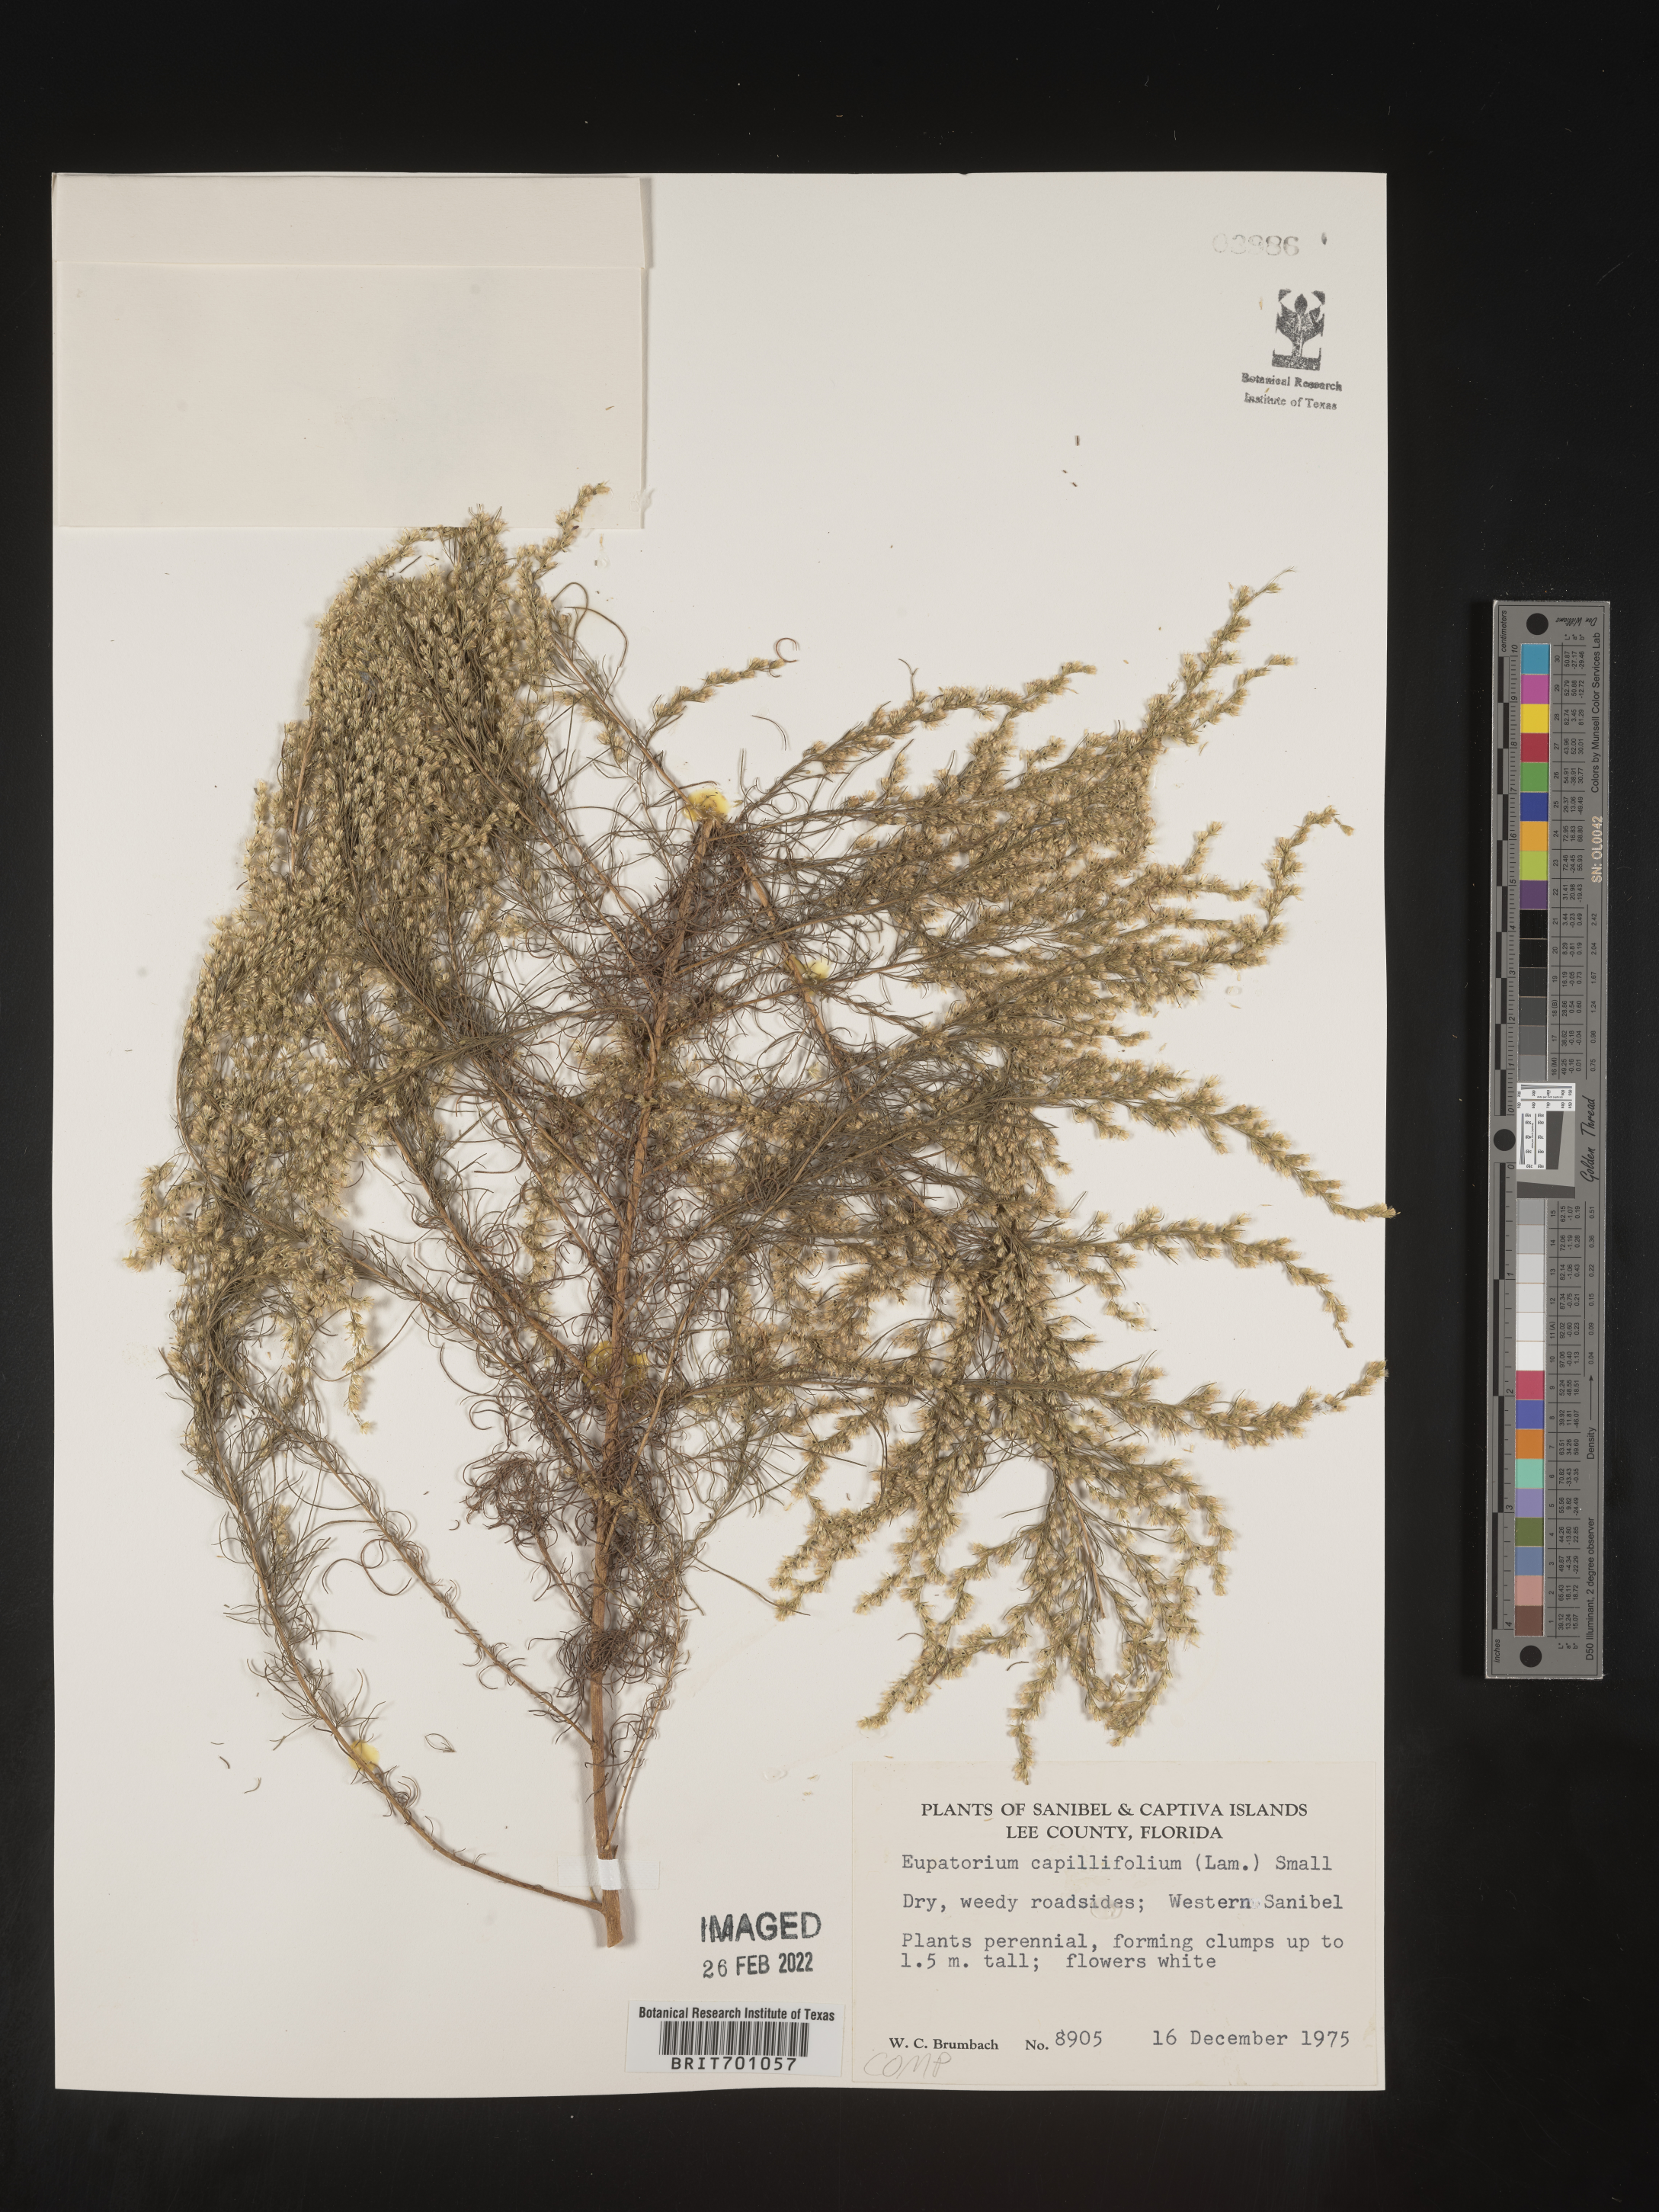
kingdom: Plantae
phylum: Tracheophyta
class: Magnoliopsida
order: Asterales
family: Asteraceae
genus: Eupatorium
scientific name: Eupatorium capillifolium
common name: Dog-fennel
